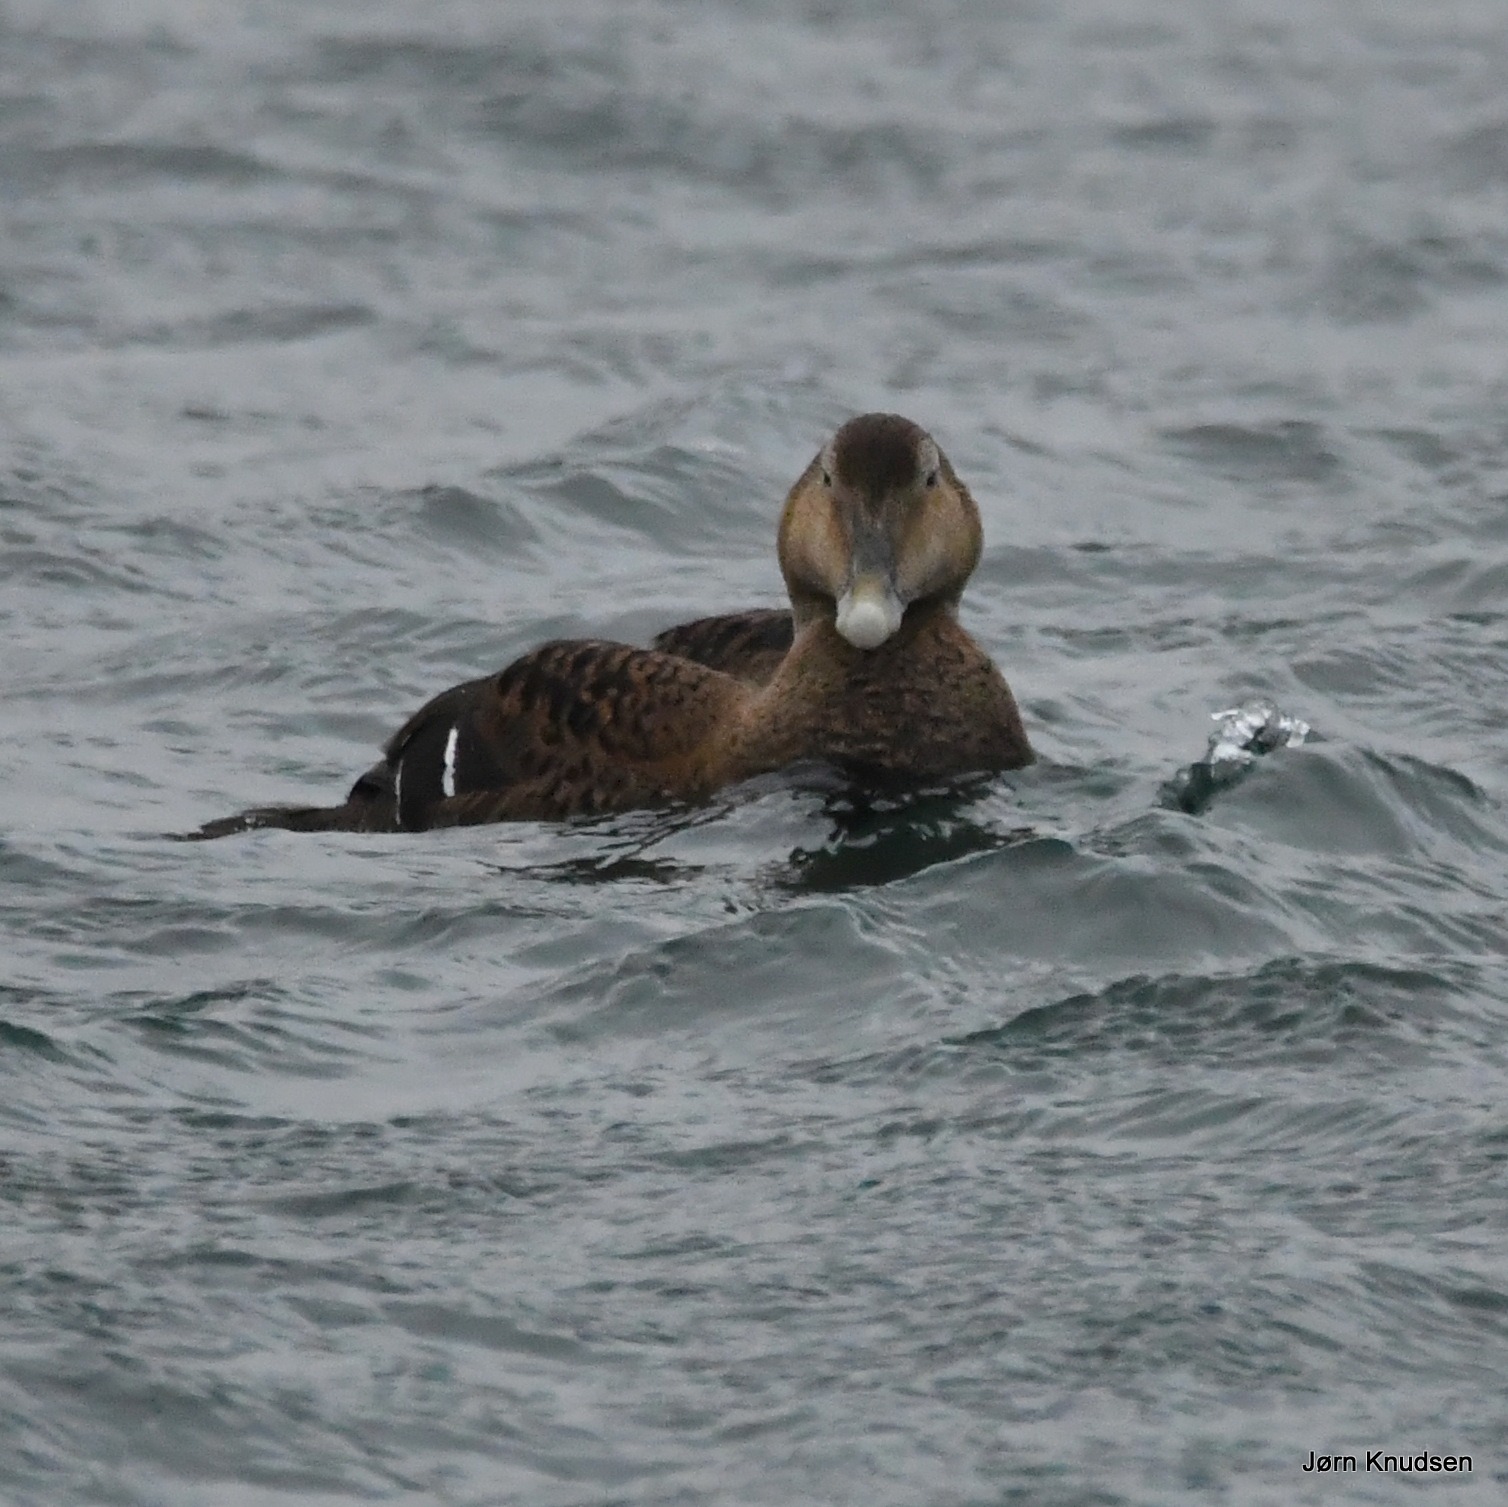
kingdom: Animalia
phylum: Chordata
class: Aves
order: Anseriformes
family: Anatidae
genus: Somateria
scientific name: Somateria mollissima
